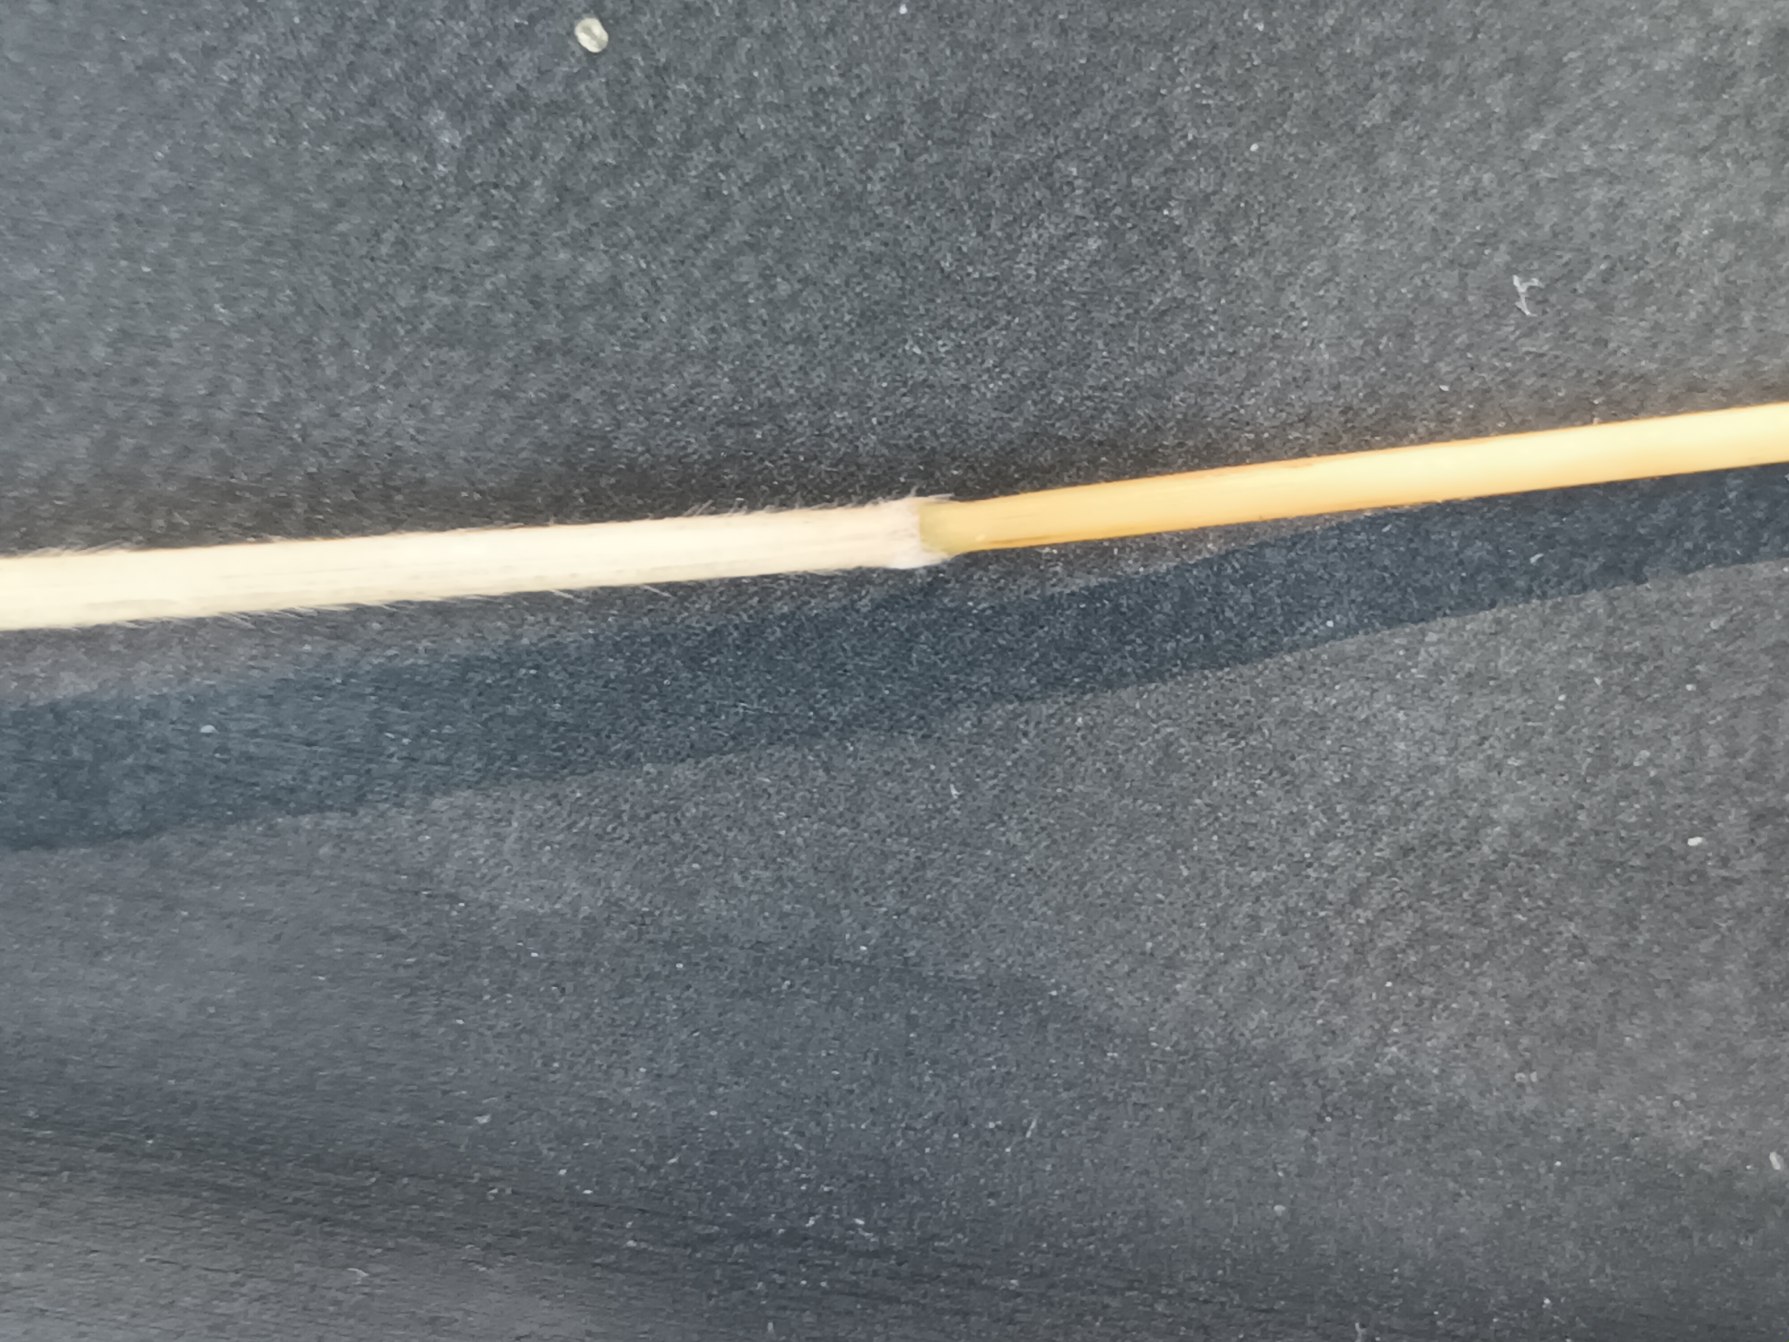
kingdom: Plantae
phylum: Tracheophyta
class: Liliopsida
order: Poales
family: Poaceae
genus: Holcus
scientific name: Holcus mollis
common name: Krybende hestegræs
